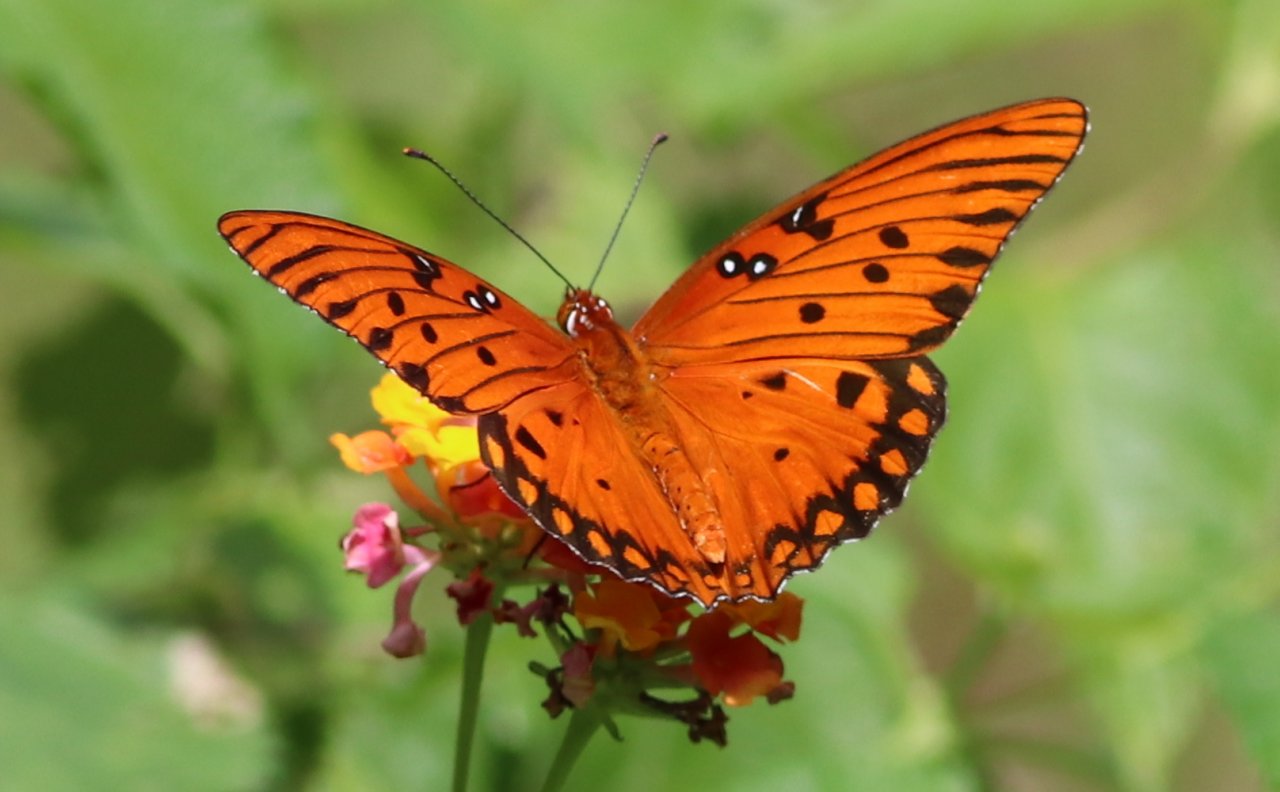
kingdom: Animalia
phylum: Arthropoda
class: Insecta
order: Lepidoptera
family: Nymphalidae
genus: Dione
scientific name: Dione vanillae
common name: Gulf Fritillary
